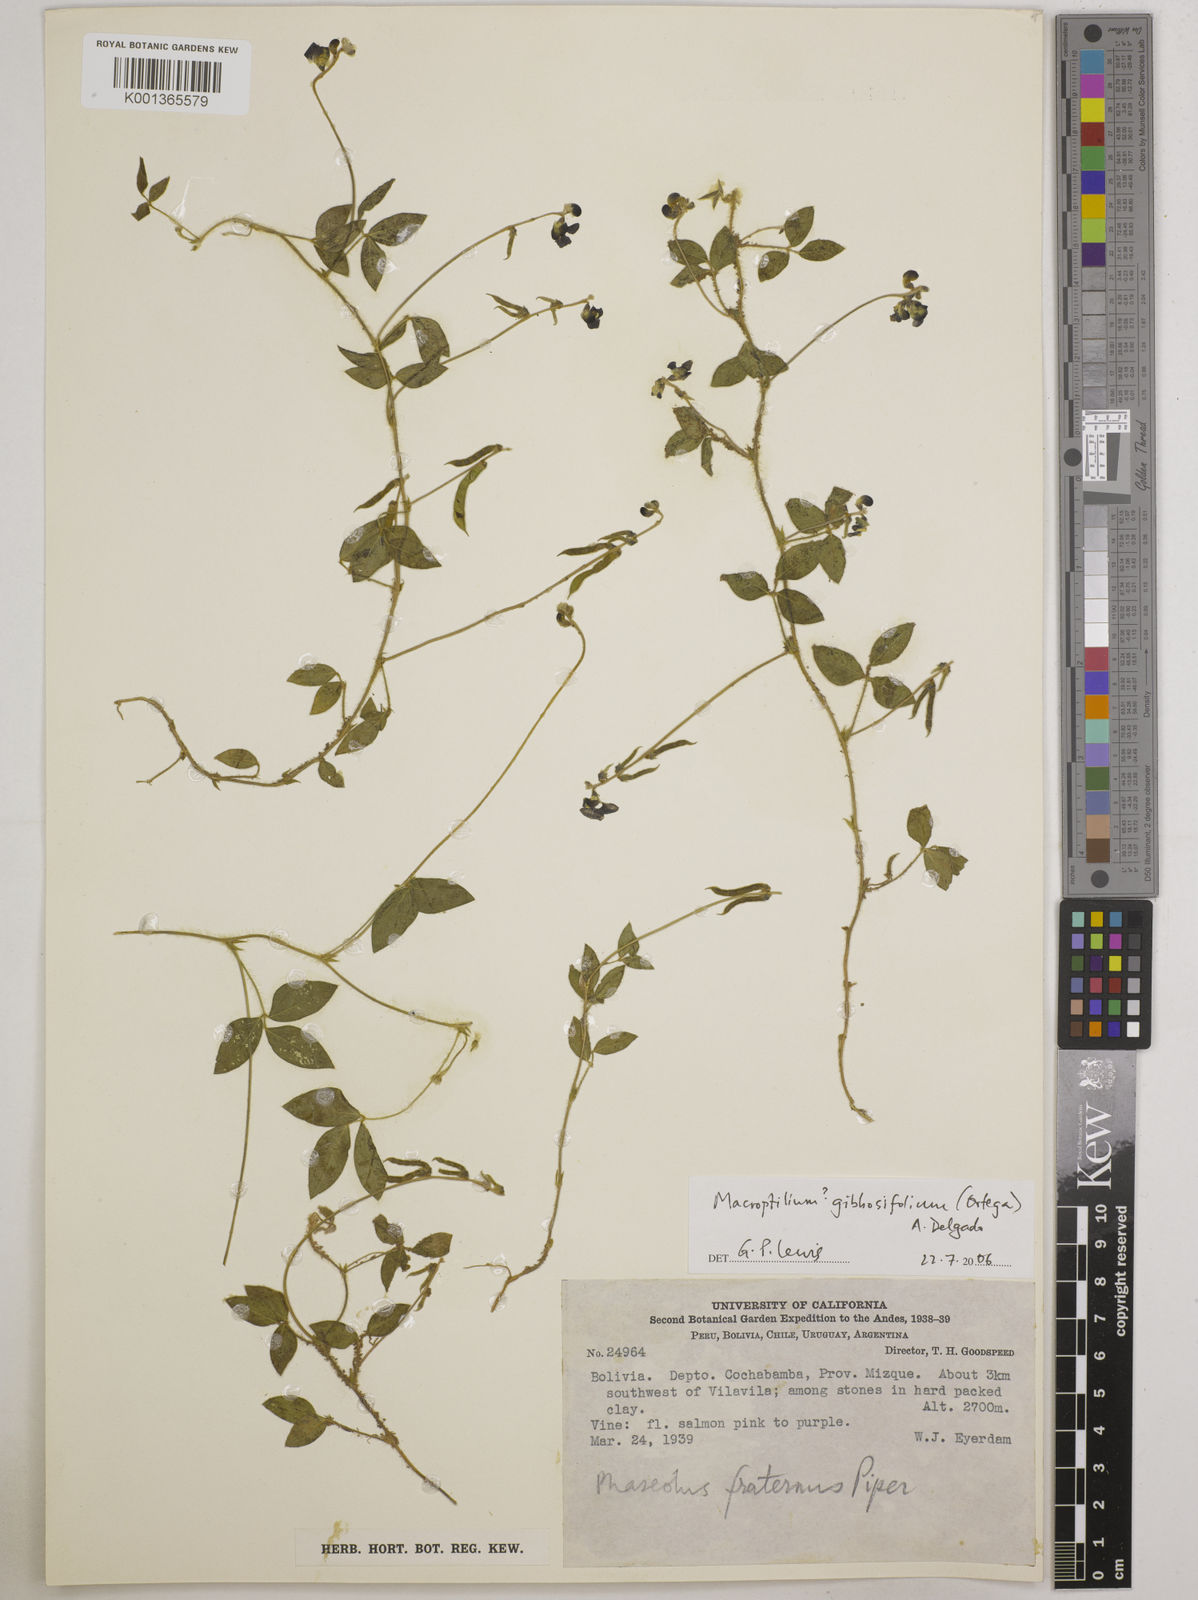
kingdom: Plantae
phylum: Tracheophyta
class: Magnoliopsida
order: Fabales
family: Fabaceae
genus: Macroptilium
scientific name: Macroptilium gibbosifolium
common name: Variableleaf bushbean
